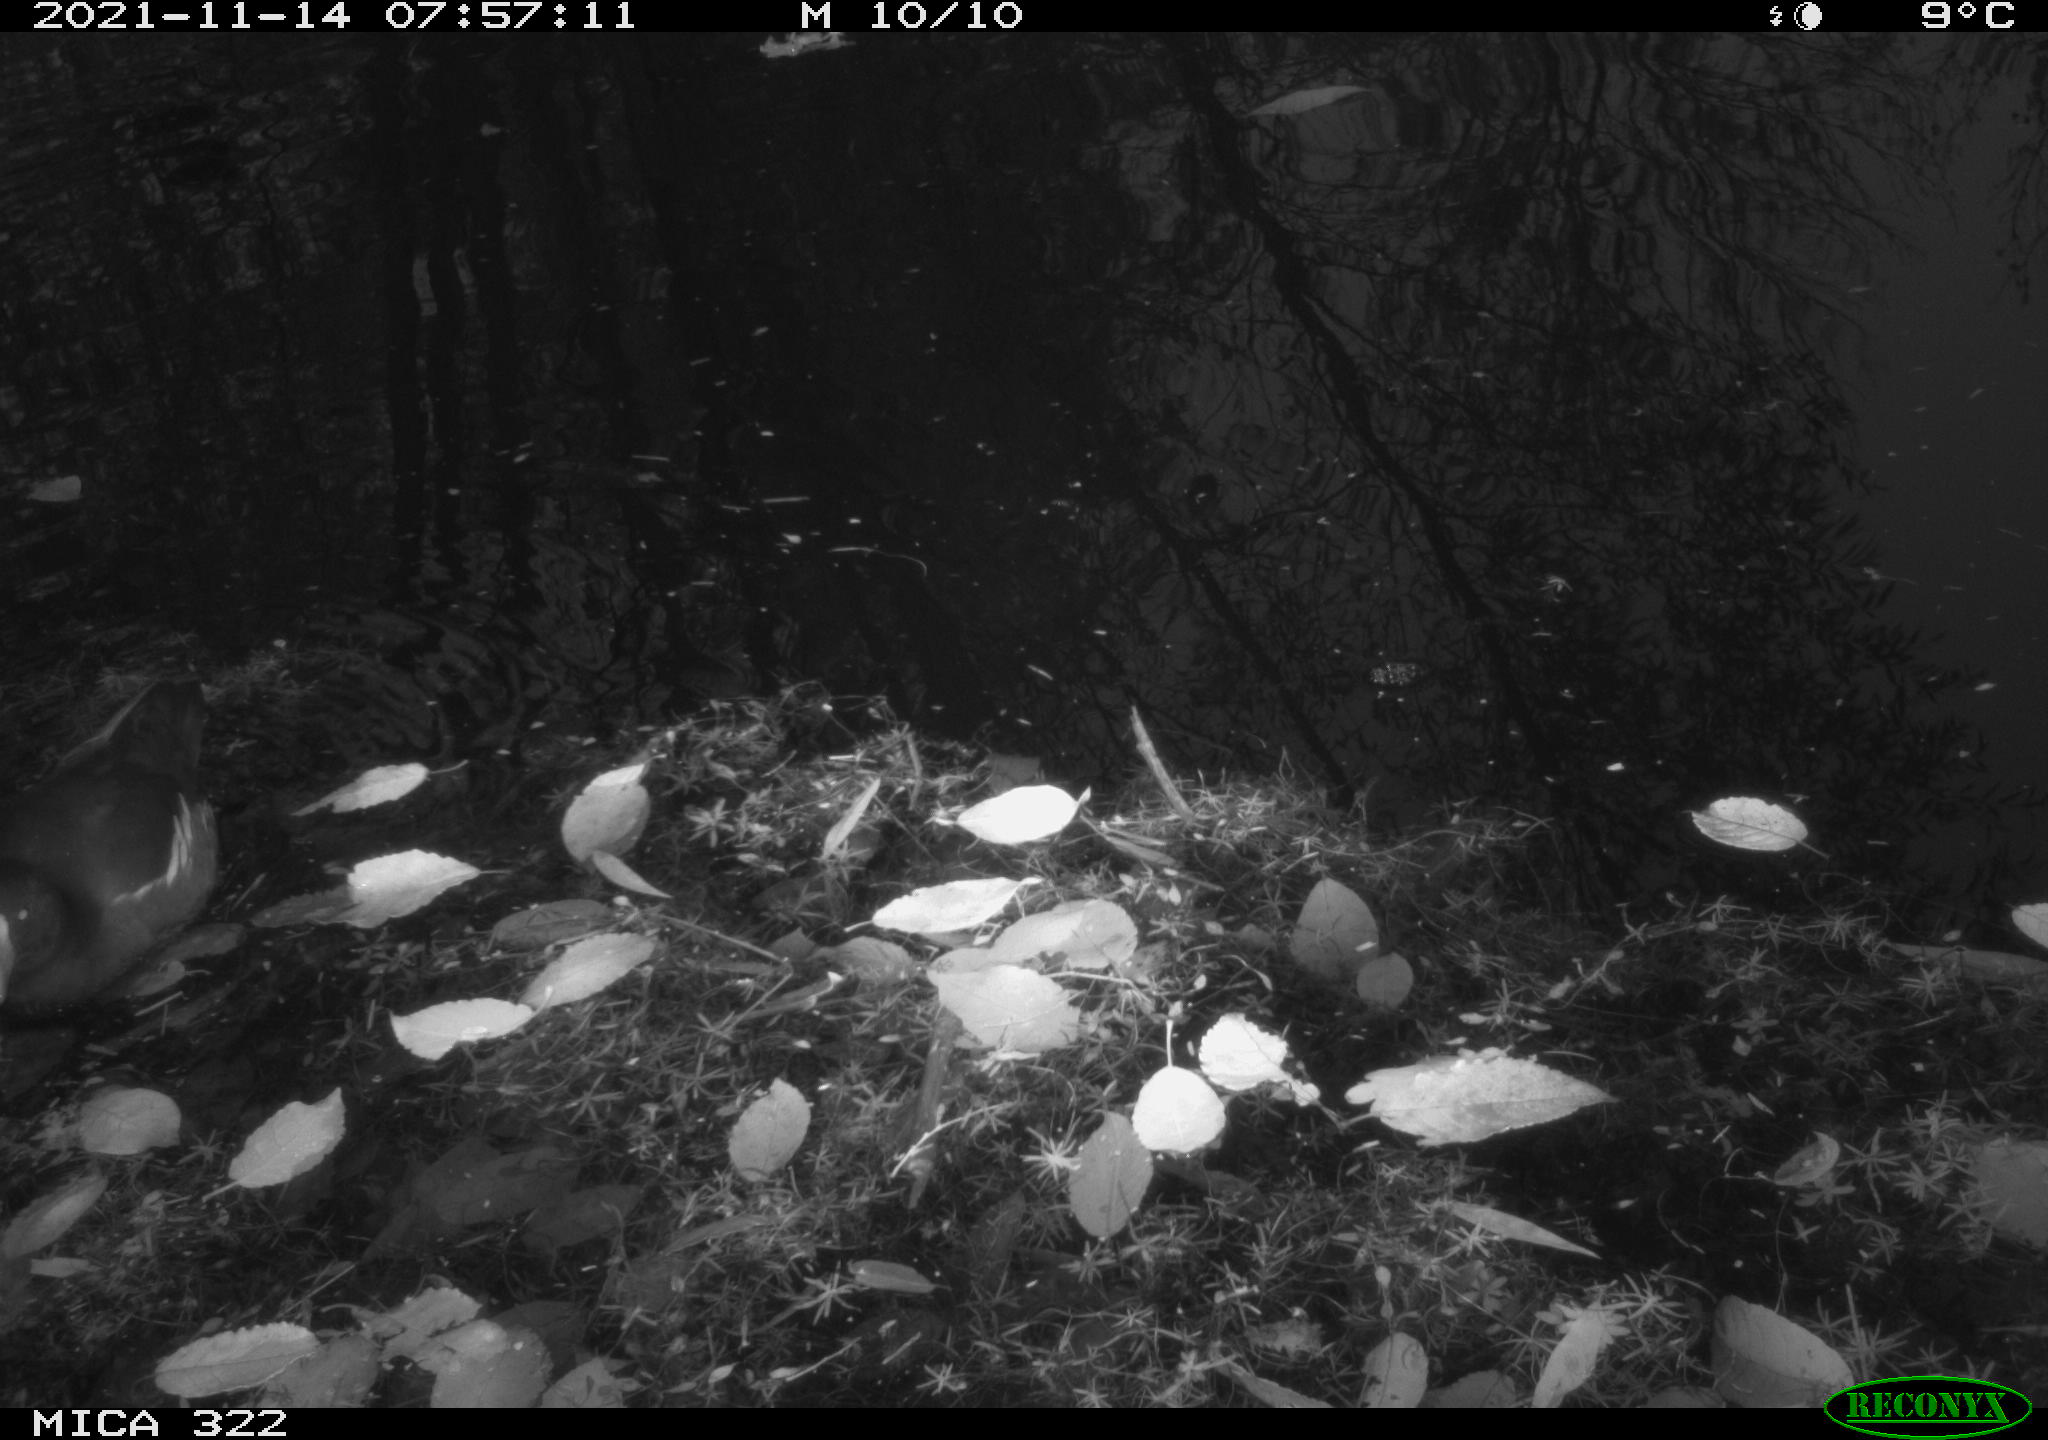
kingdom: Animalia
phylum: Chordata
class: Aves
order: Gruiformes
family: Rallidae
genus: Gallinula
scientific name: Gallinula chloropus
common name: Common moorhen
